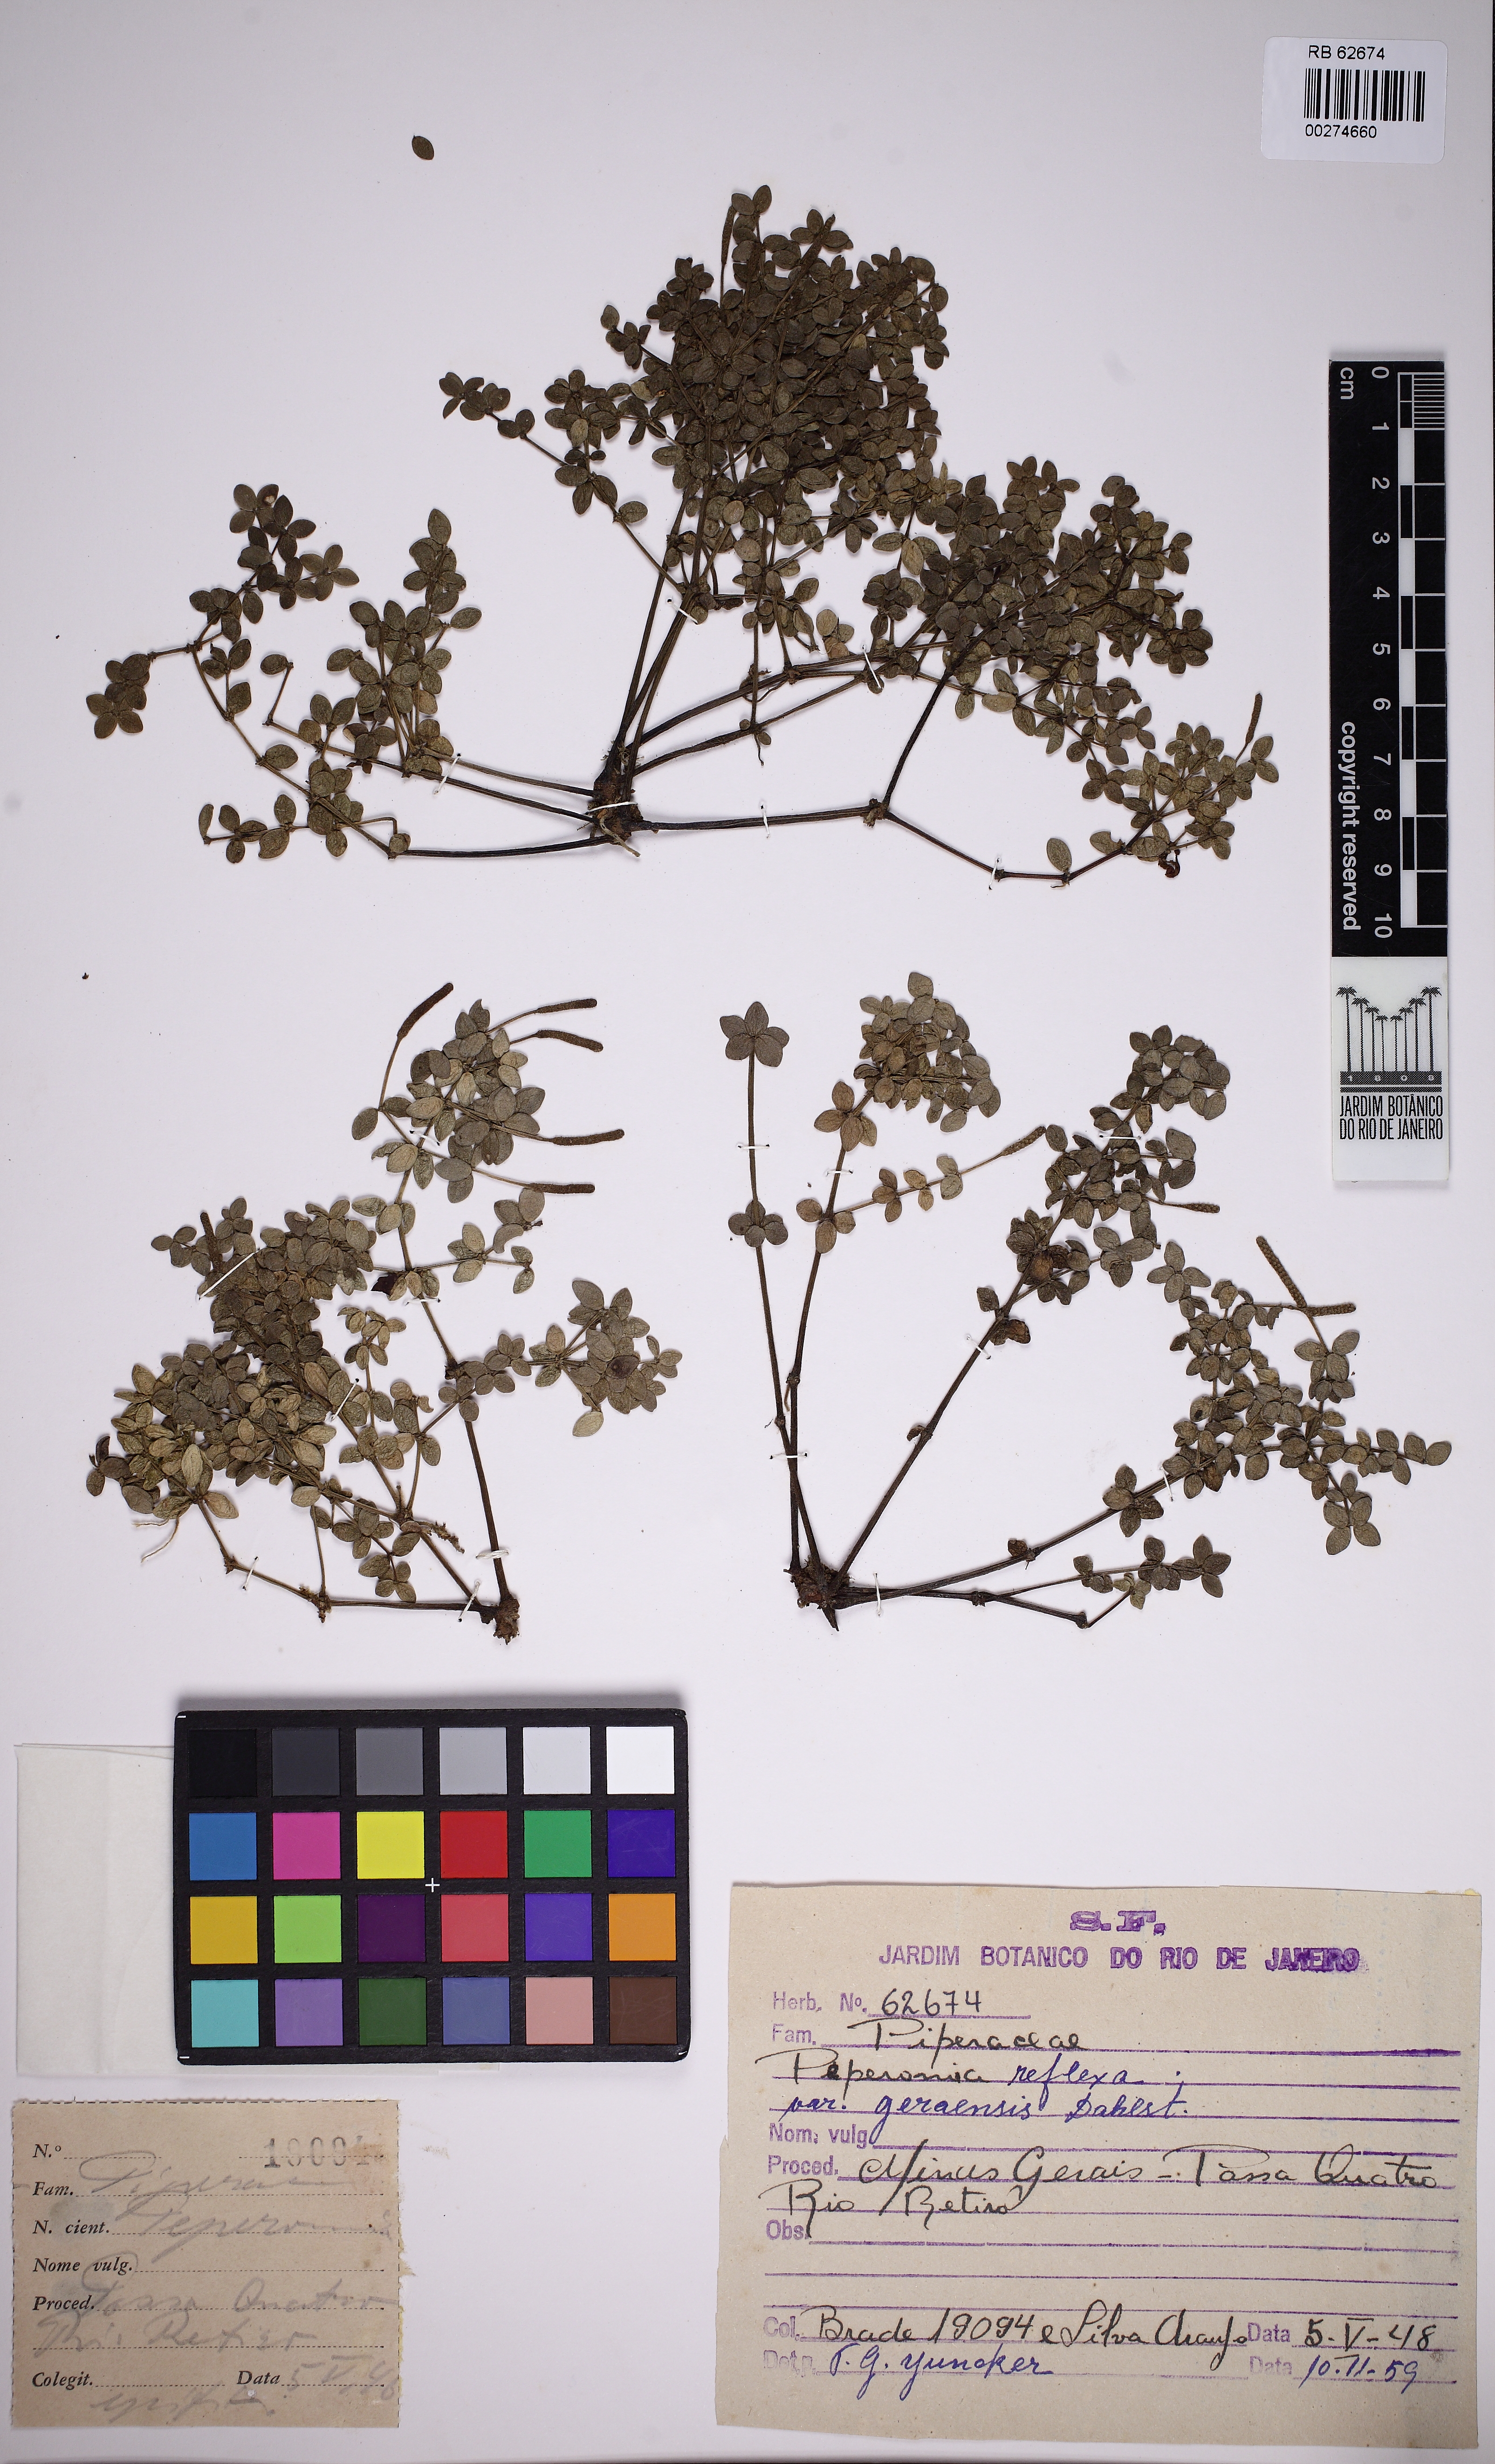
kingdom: Plantae
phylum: Tracheophyta
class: Magnoliopsida
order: Piperales
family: Piperaceae
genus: Peperomia
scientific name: Peperomia tetraphylla
